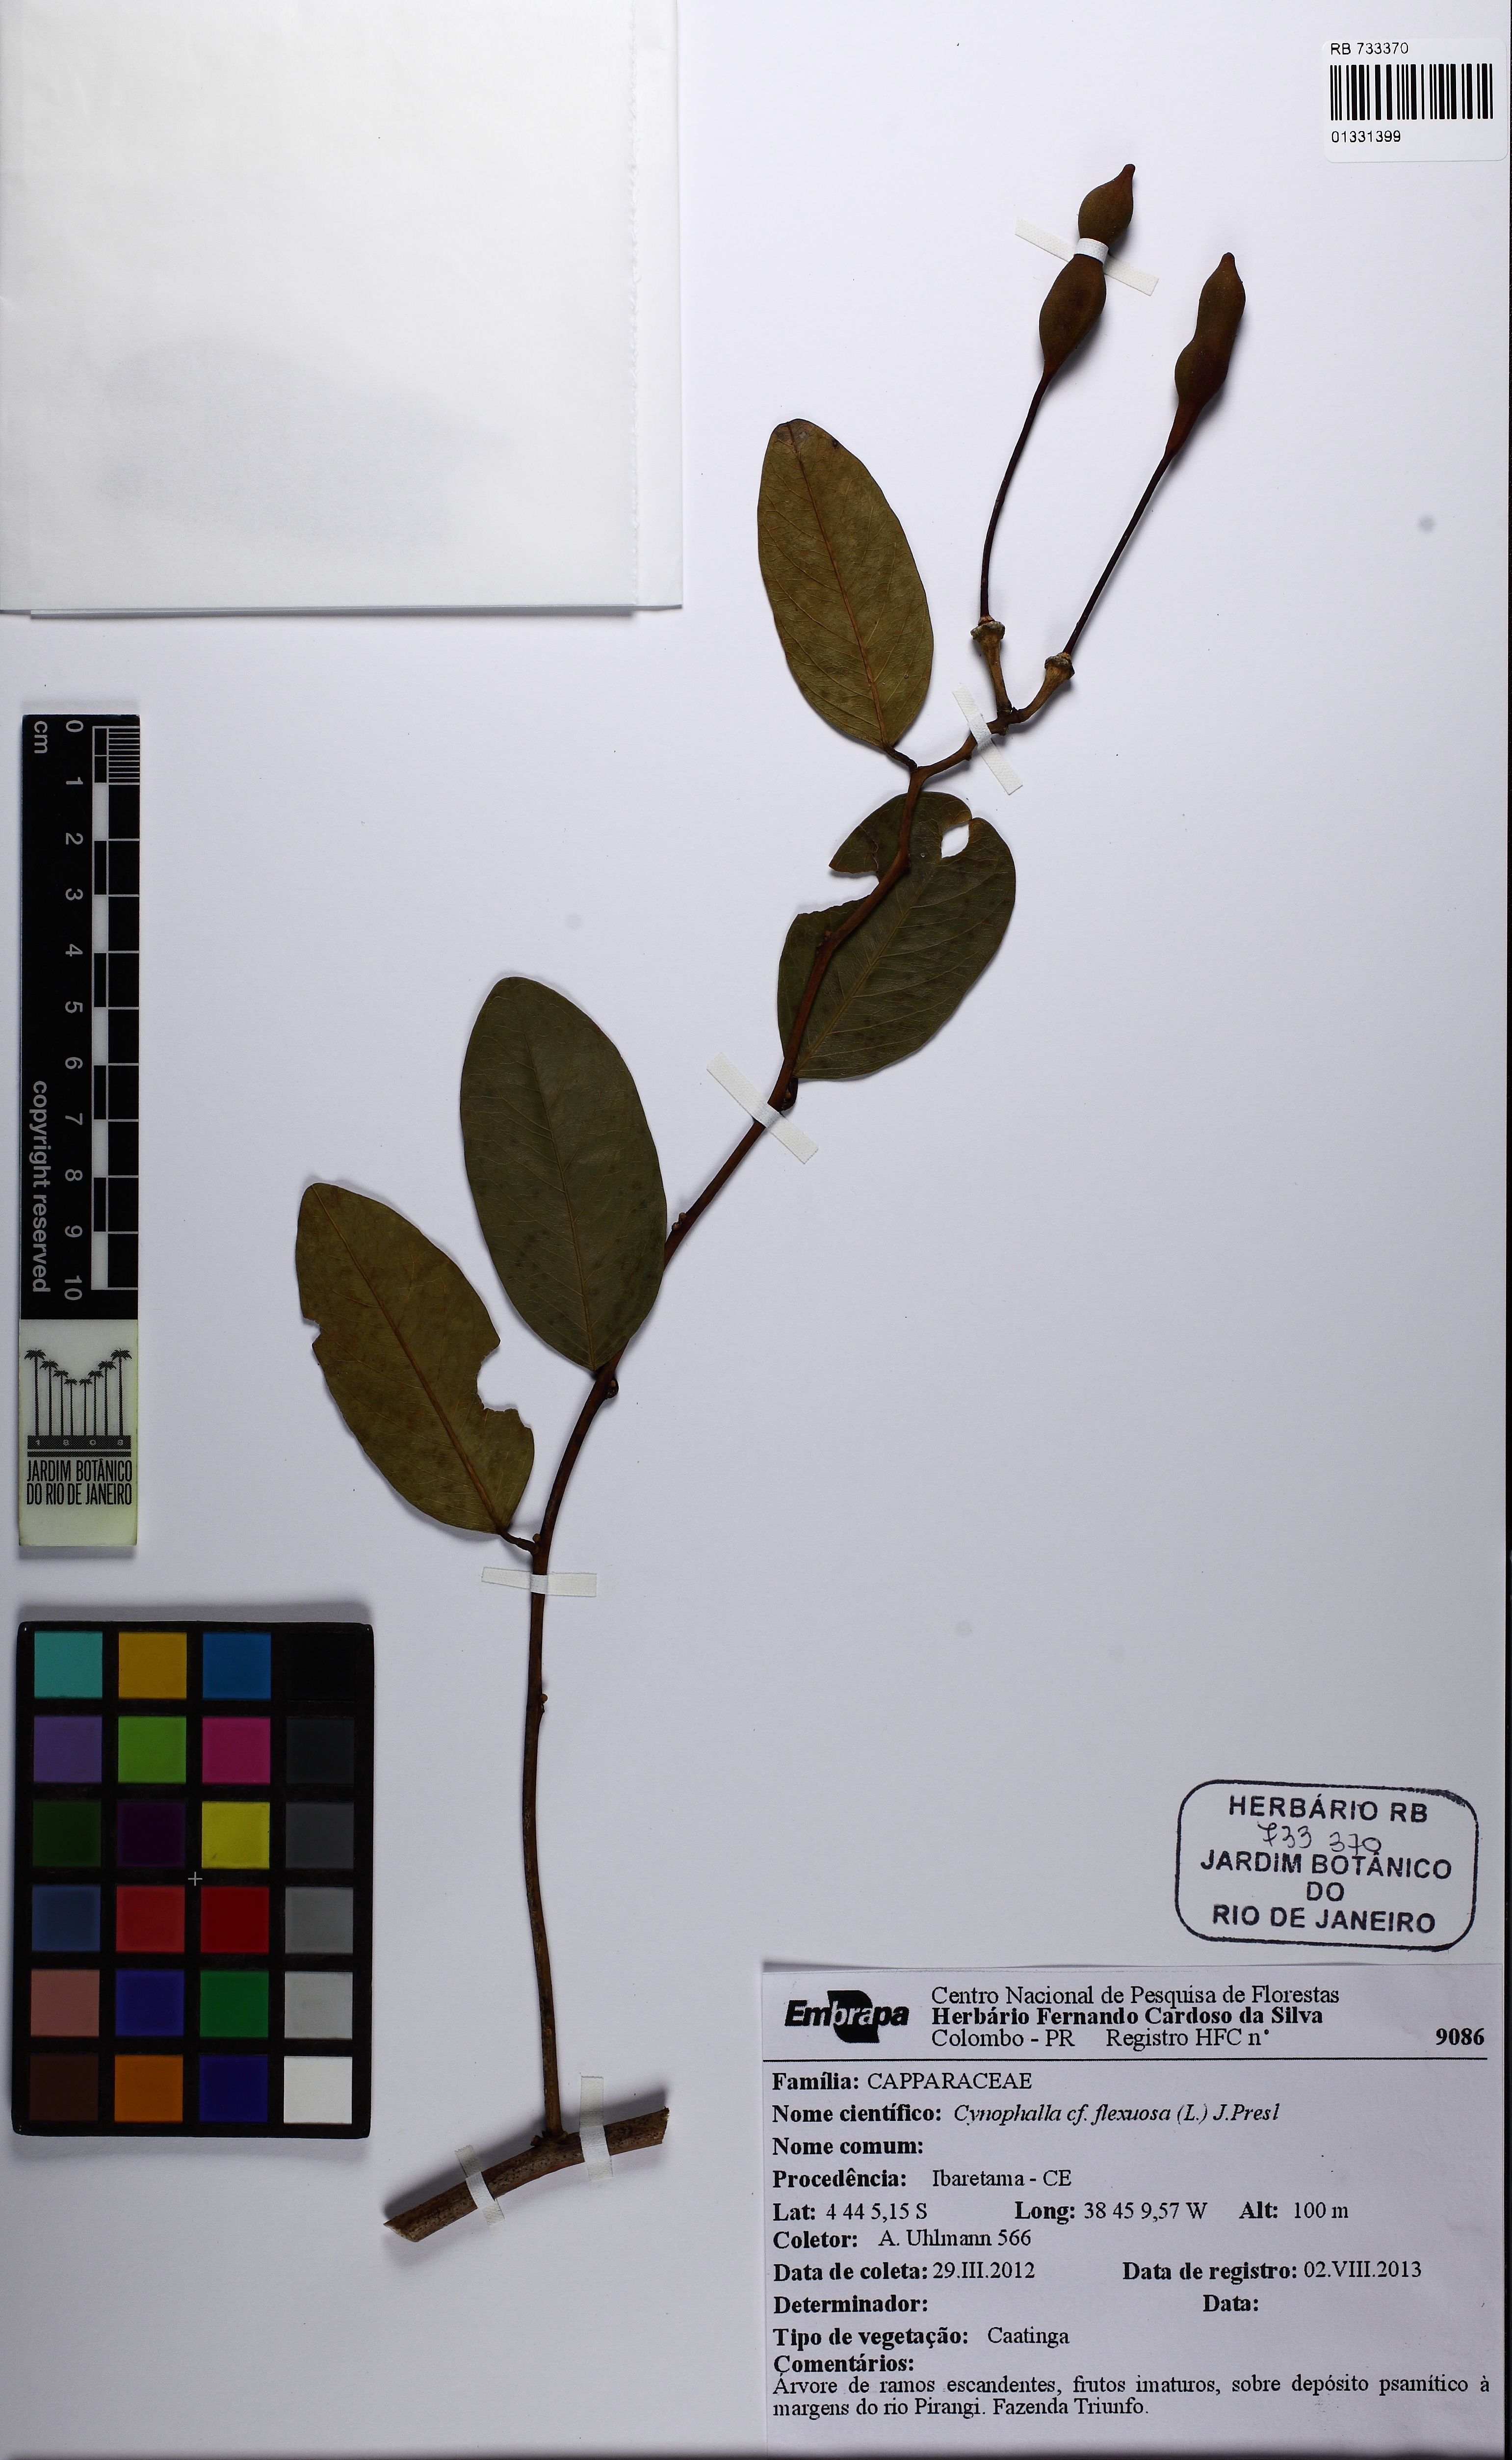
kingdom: Plantae
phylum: Tracheophyta
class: Magnoliopsida
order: Brassicales
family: Capparaceae
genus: Cynophalla
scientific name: Cynophalla flexuosa
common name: Capertree
